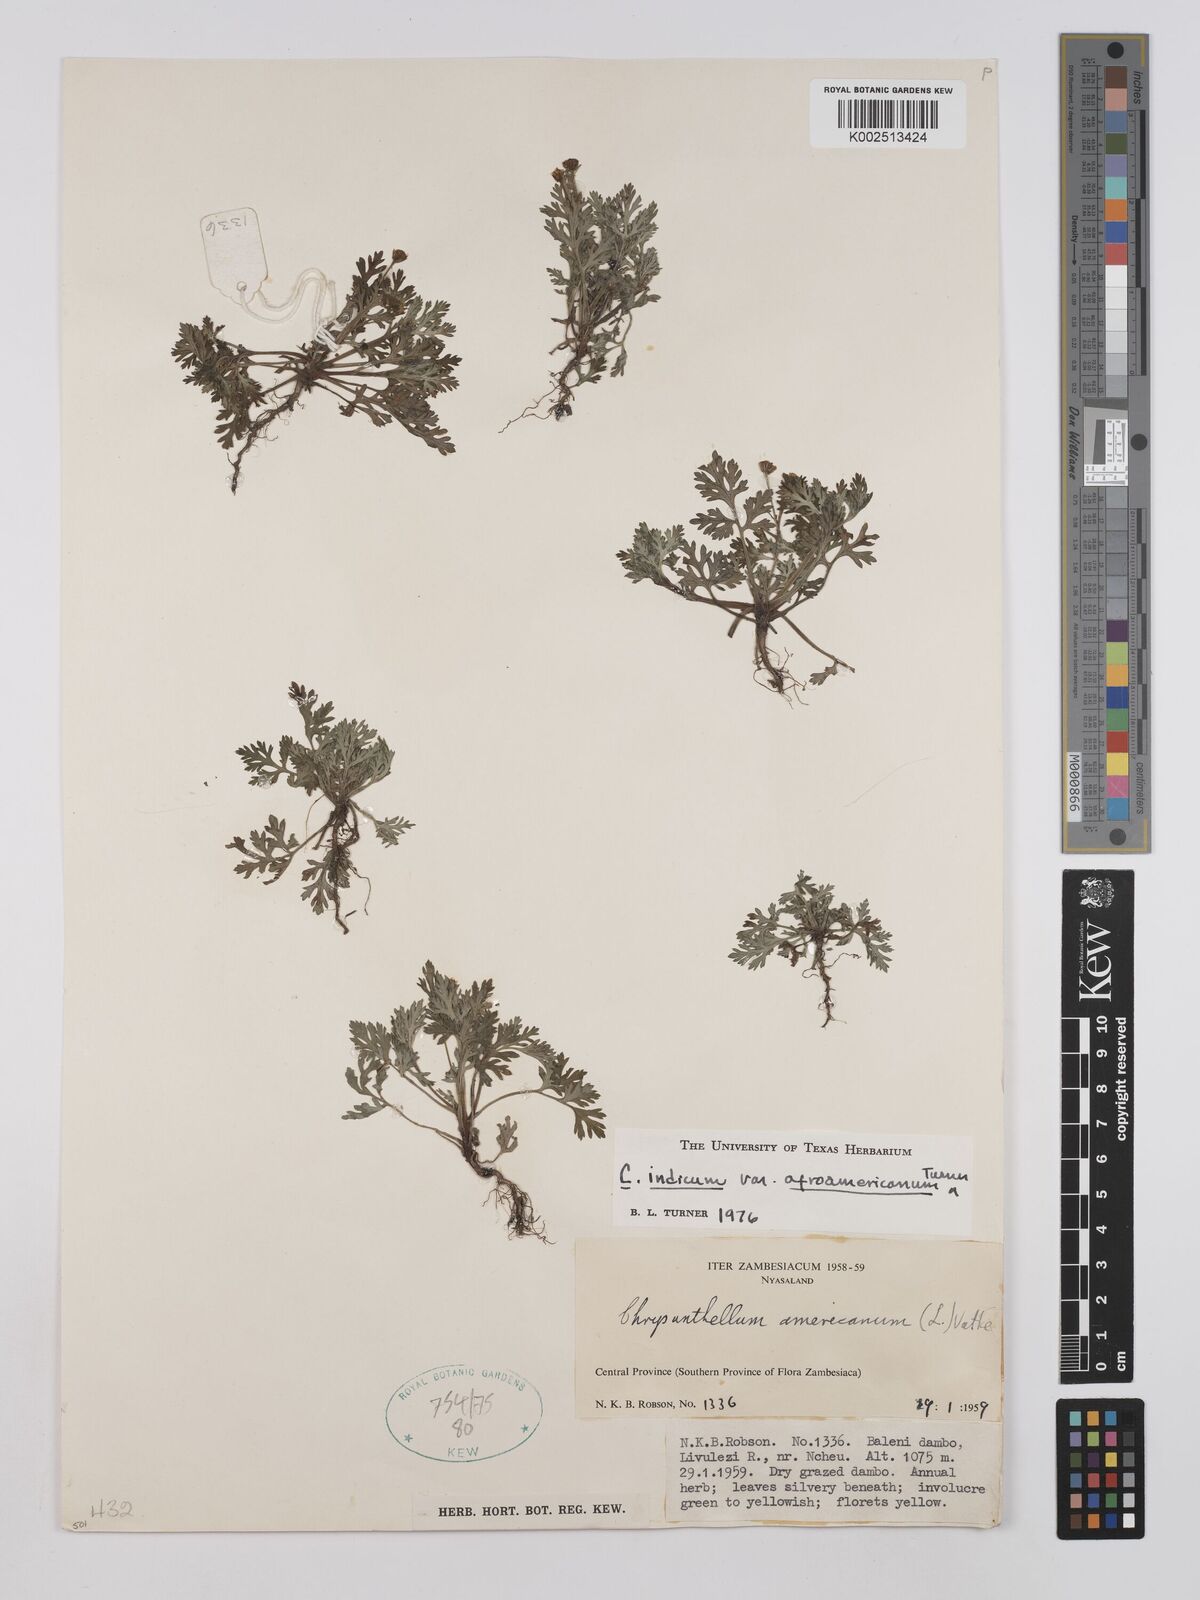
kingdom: Plantae
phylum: Tracheophyta
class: Magnoliopsida
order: Asterales
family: Asteraceae
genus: Chrysanthellum
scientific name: Chrysanthellum indicum
